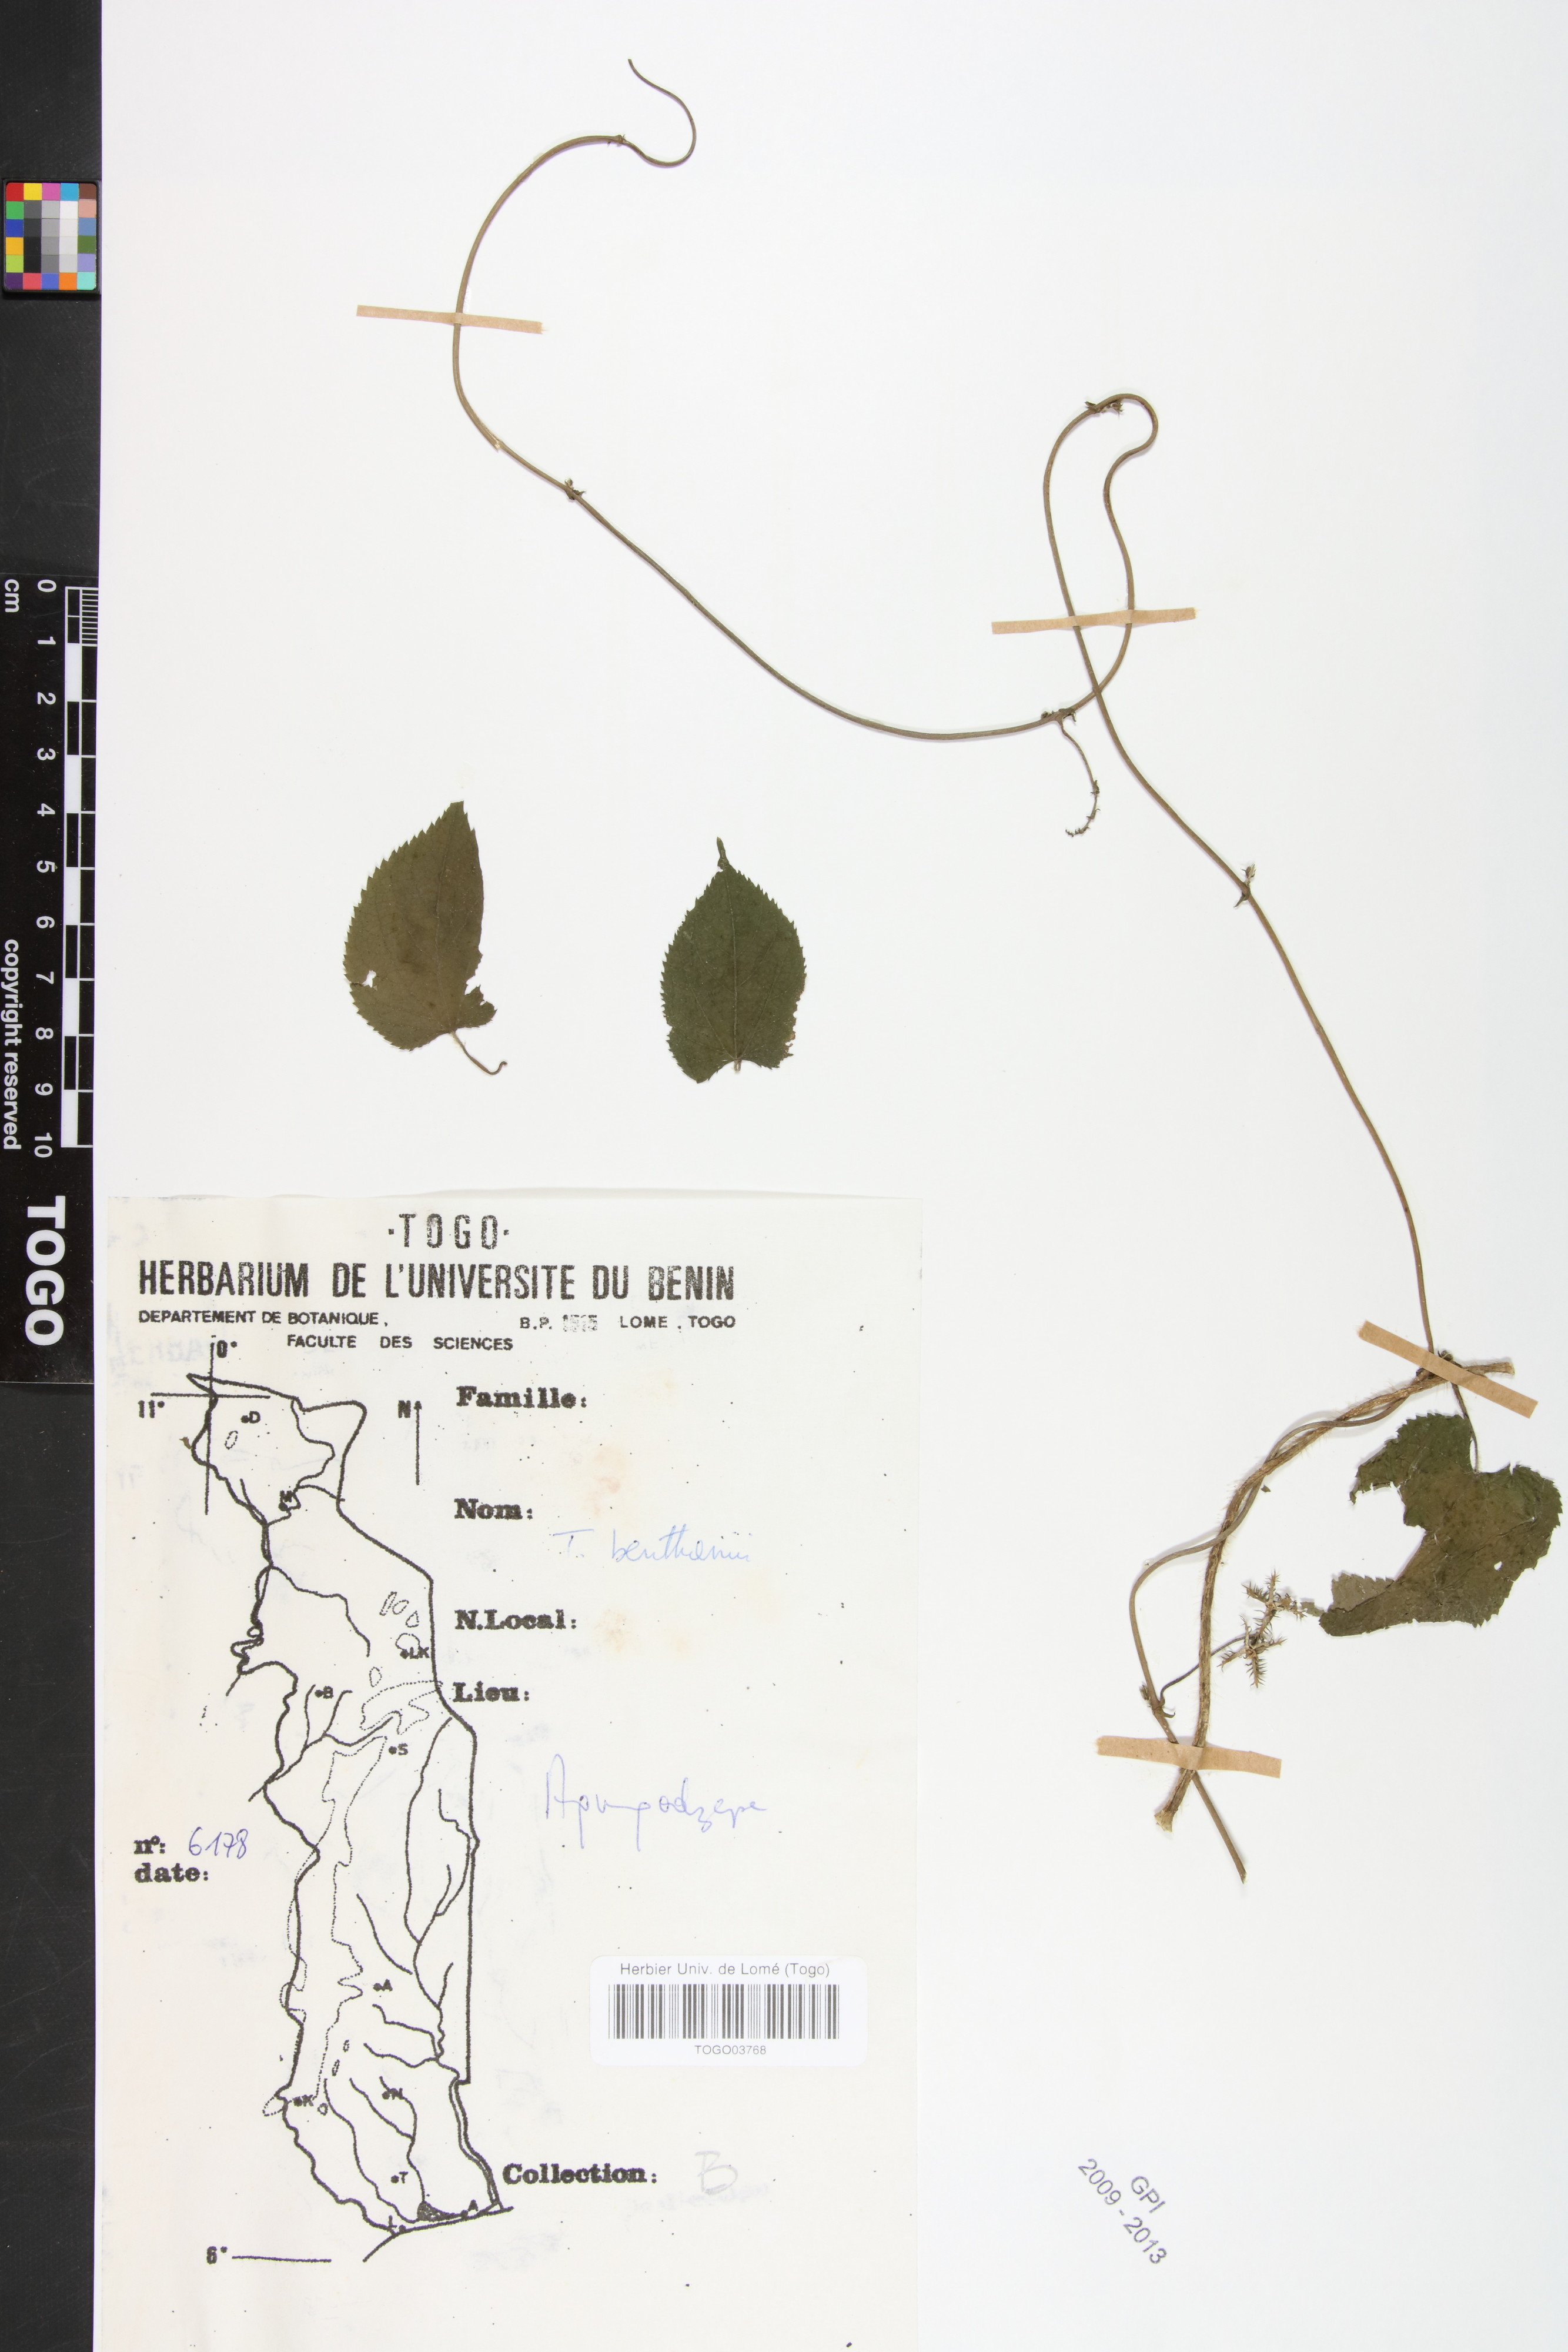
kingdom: Plantae
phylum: Tracheophyta
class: Magnoliopsida
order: Malpighiales
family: Euphorbiaceae
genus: Tragia
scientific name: Tragia benthamii
